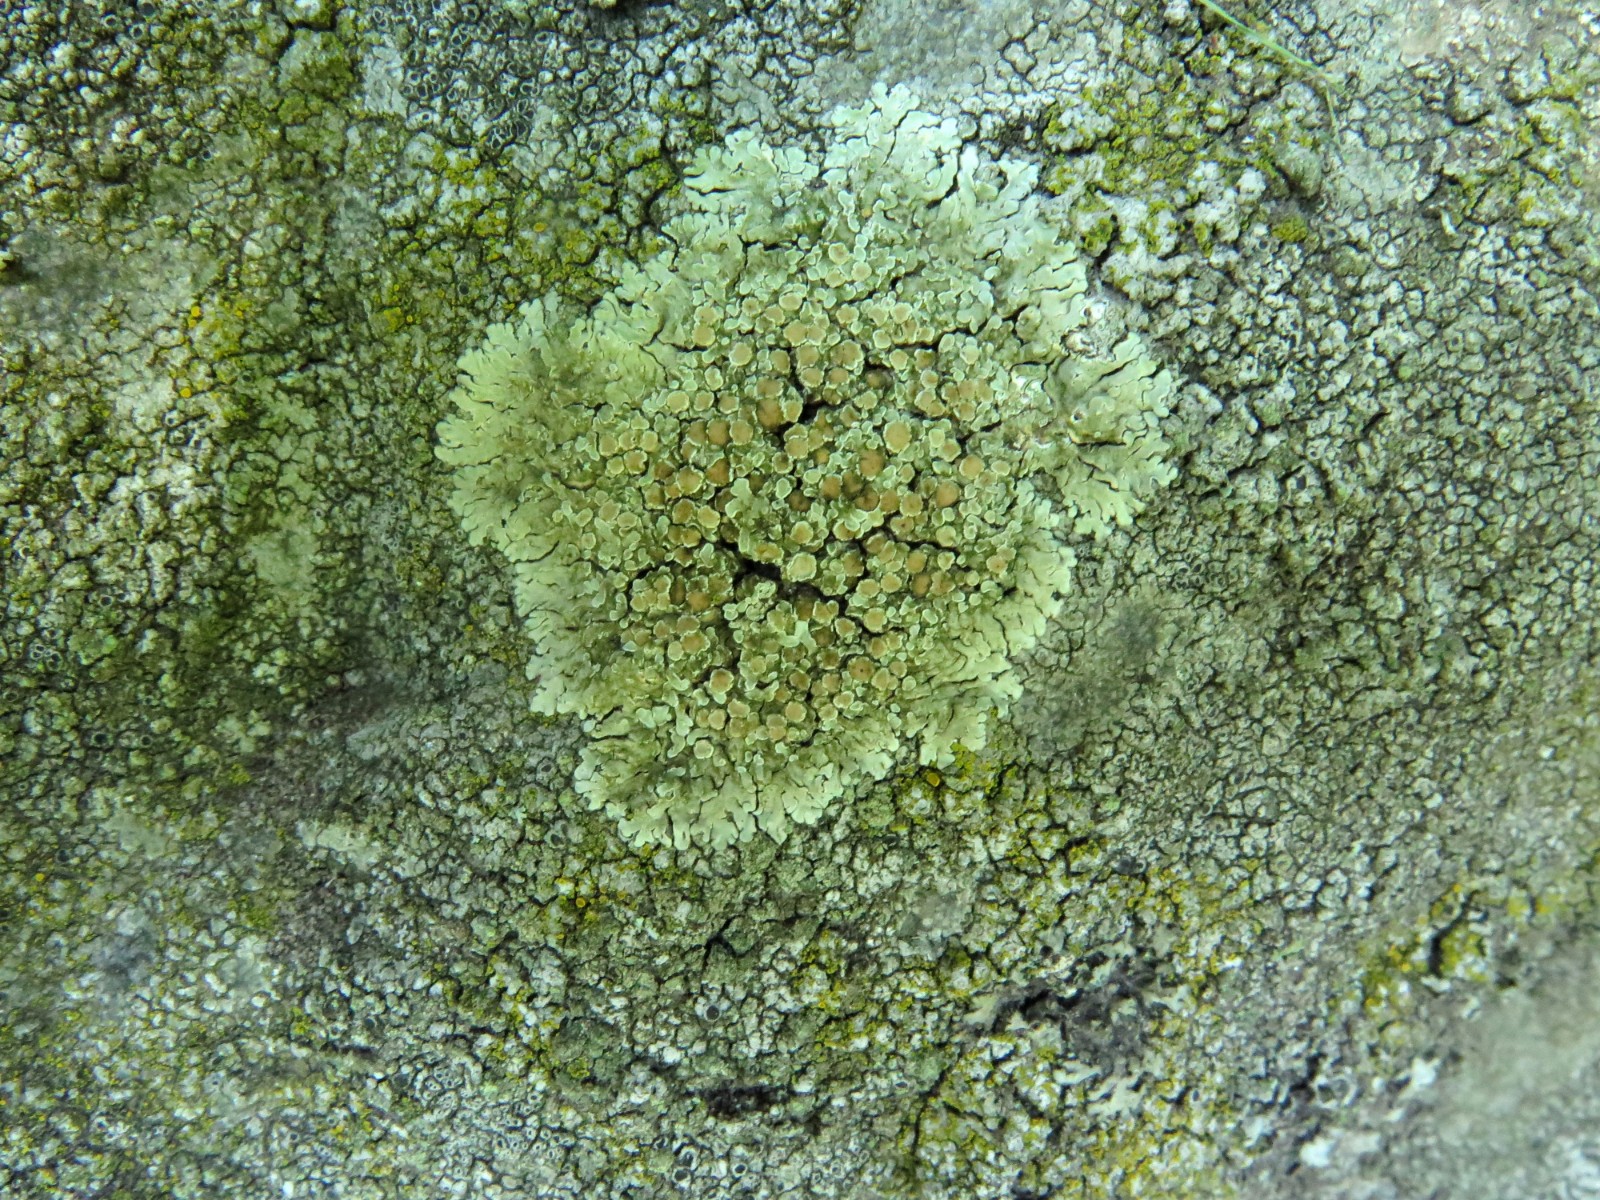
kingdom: Fungi
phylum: Ascomycota
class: Lecanoromycetes
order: Lecanorales
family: Lecanoraceae
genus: Protoparmeliopsis
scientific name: Protoparmeliopsis muralis
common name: randfliget kantskivelav
